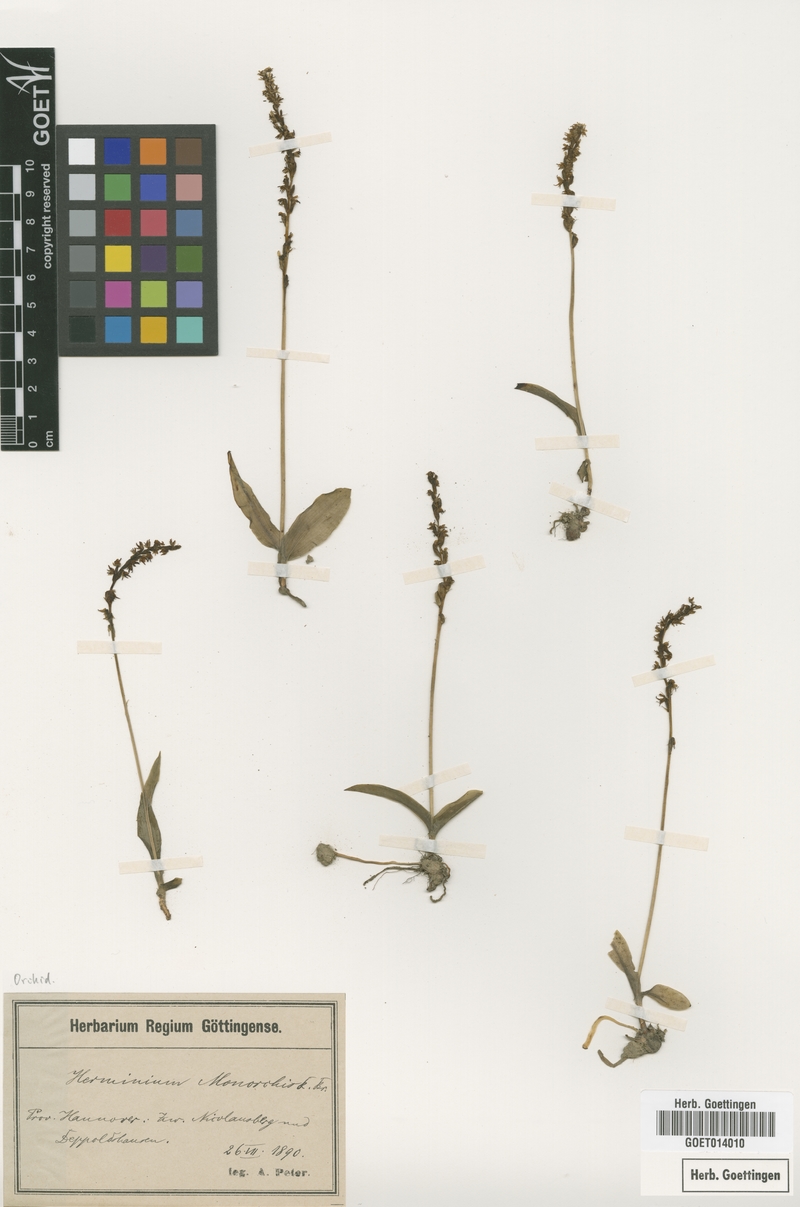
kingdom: Plantae
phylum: Tracheophyta
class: Liliopsida
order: Asparagales
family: Orchidaceae
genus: Herminium
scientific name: Herminium monorchis
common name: Musk orchid
